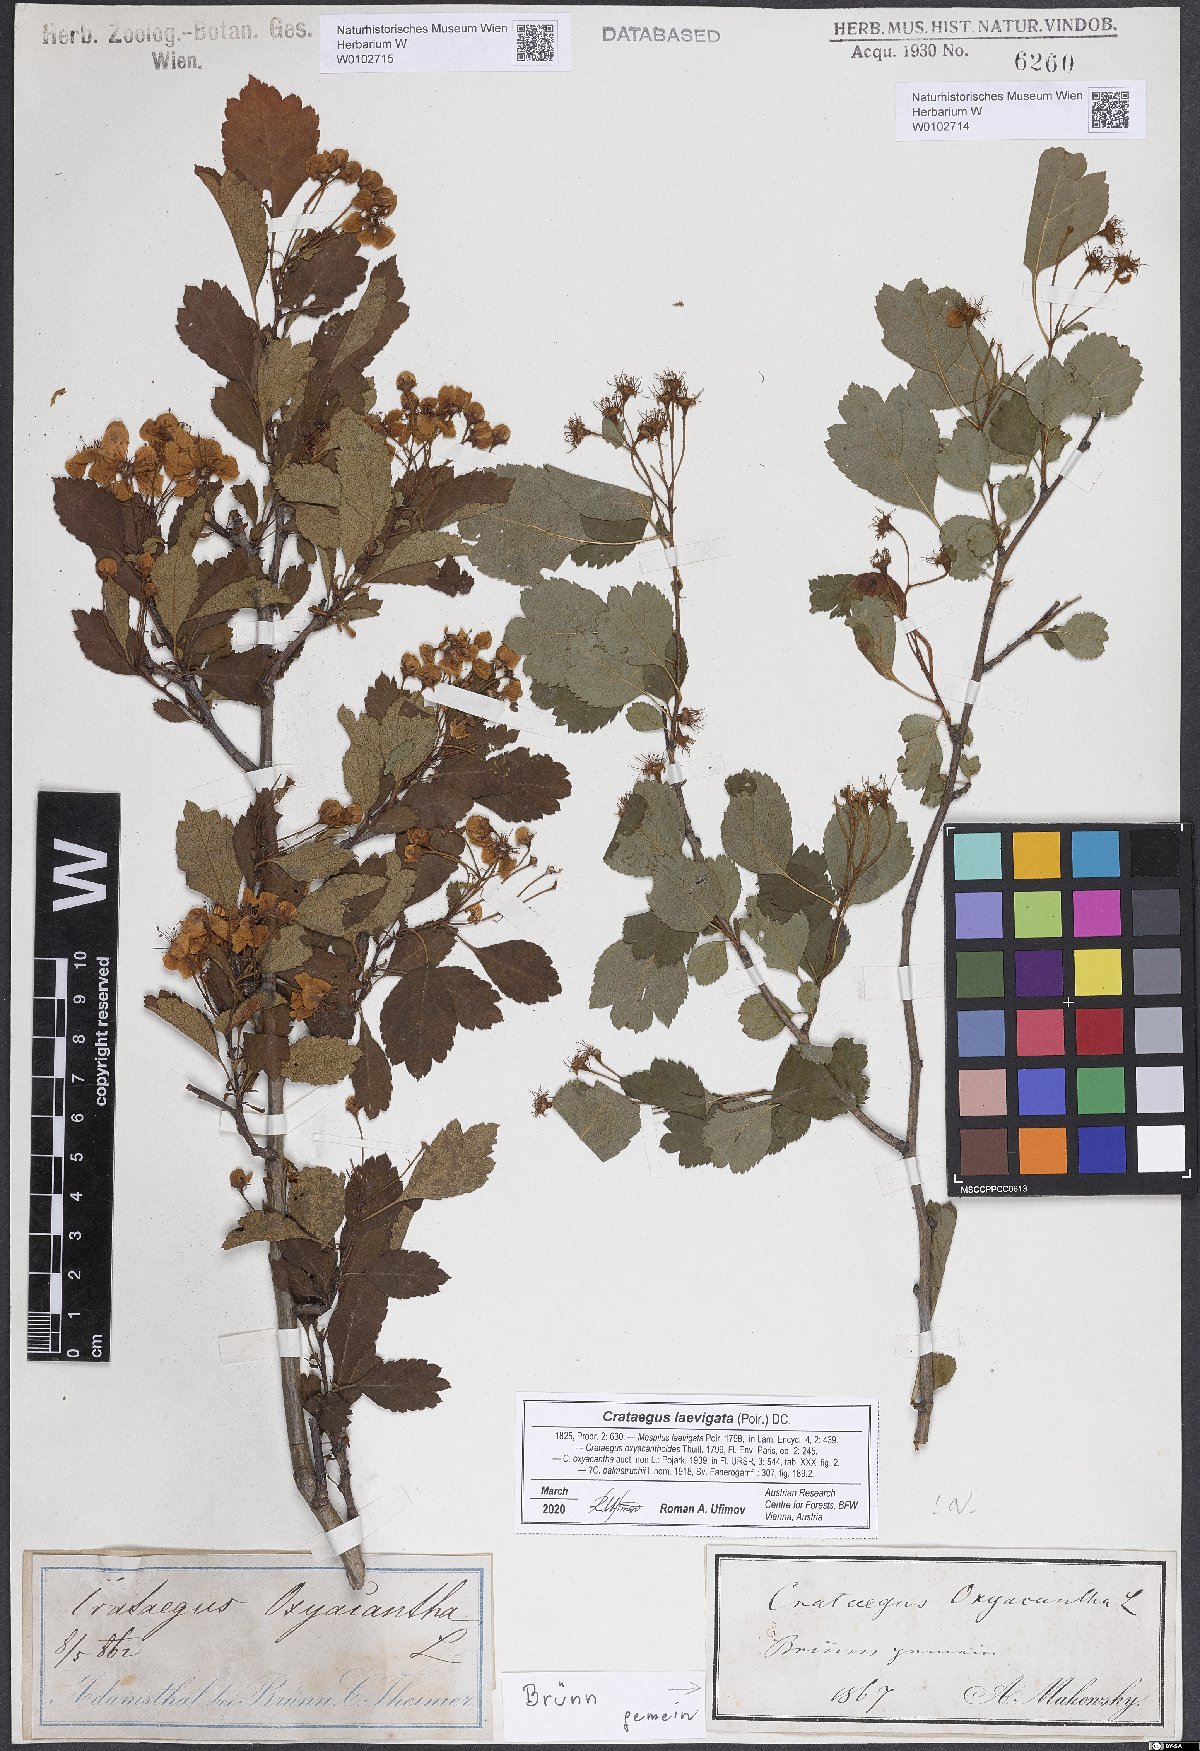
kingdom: Plantae
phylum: Tracheophyta
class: Magnoliopsida
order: Rosales
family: Rosaceae
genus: Crataegus
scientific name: Crataegus laevigata
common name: Midland hawthorn
